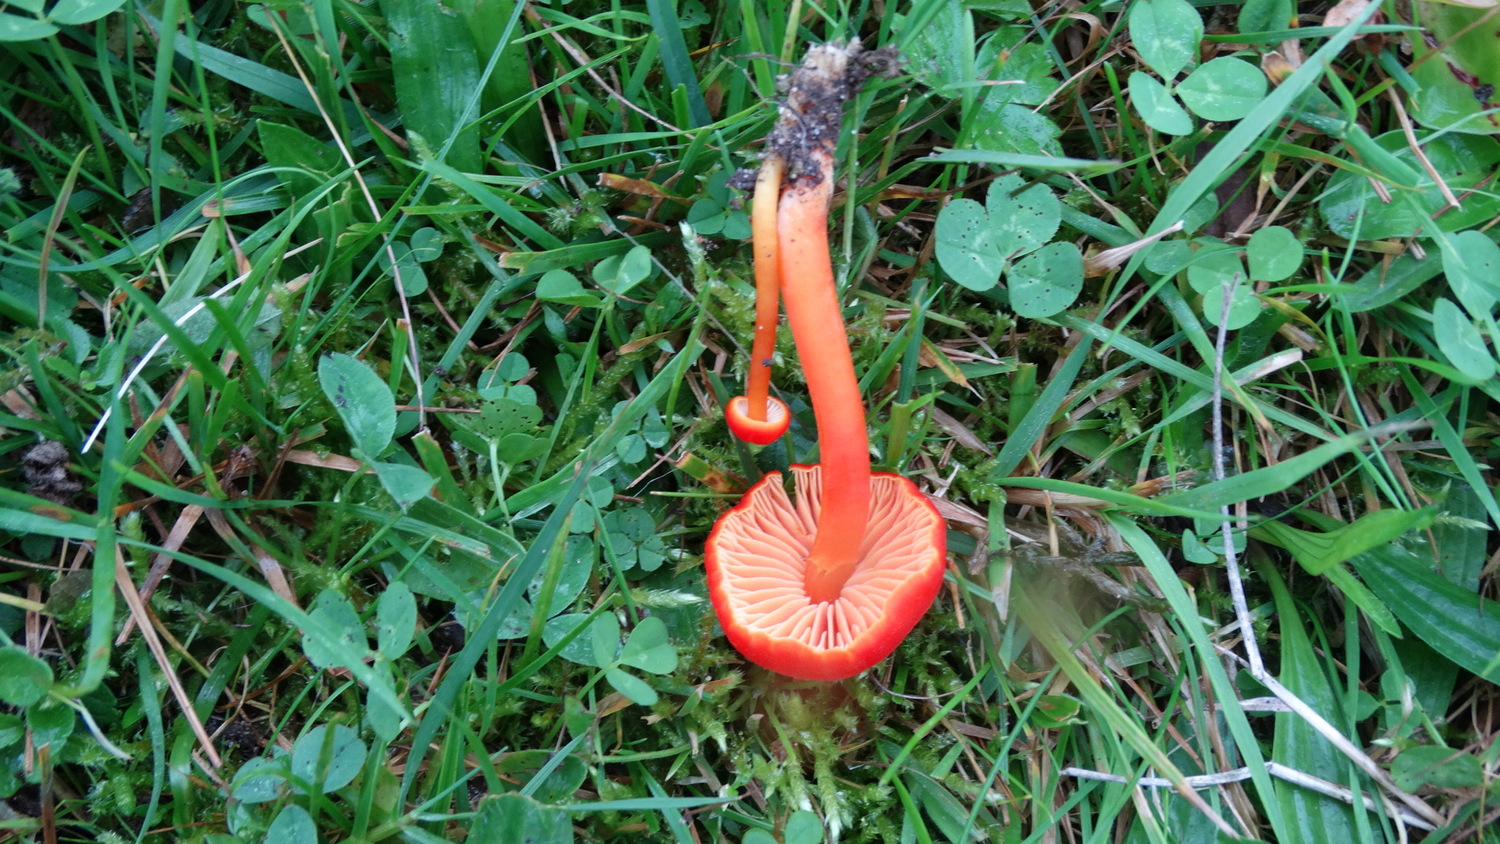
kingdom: Fungi
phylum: Basidiomycota
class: Agaricomycetes
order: Agaricales
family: Hygrophoraceae
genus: Hygrocybe
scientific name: Hygrocybe miniata
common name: mønje-vokshat
